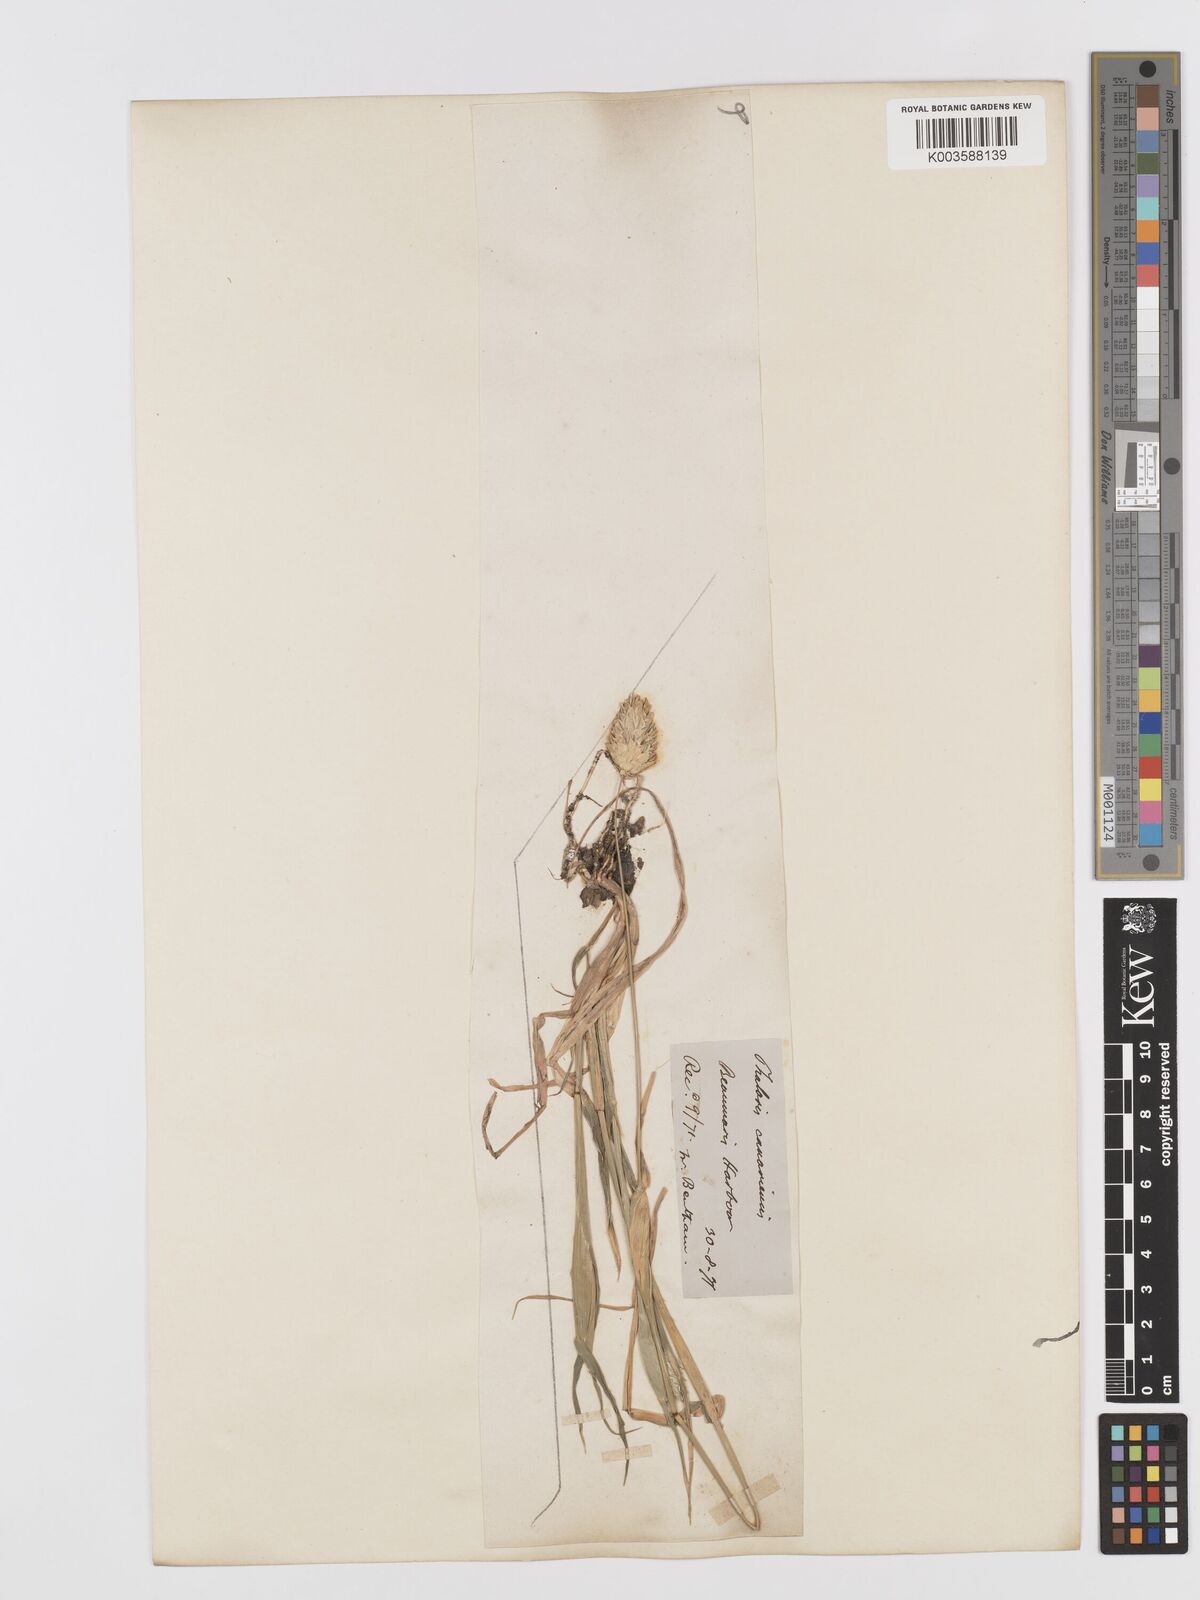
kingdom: Plantae
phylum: Tracheophyta
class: Liliopsida
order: Poales
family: Poaceae
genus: Phalaris
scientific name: Phalaris canariensis
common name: Annual canarygrass
